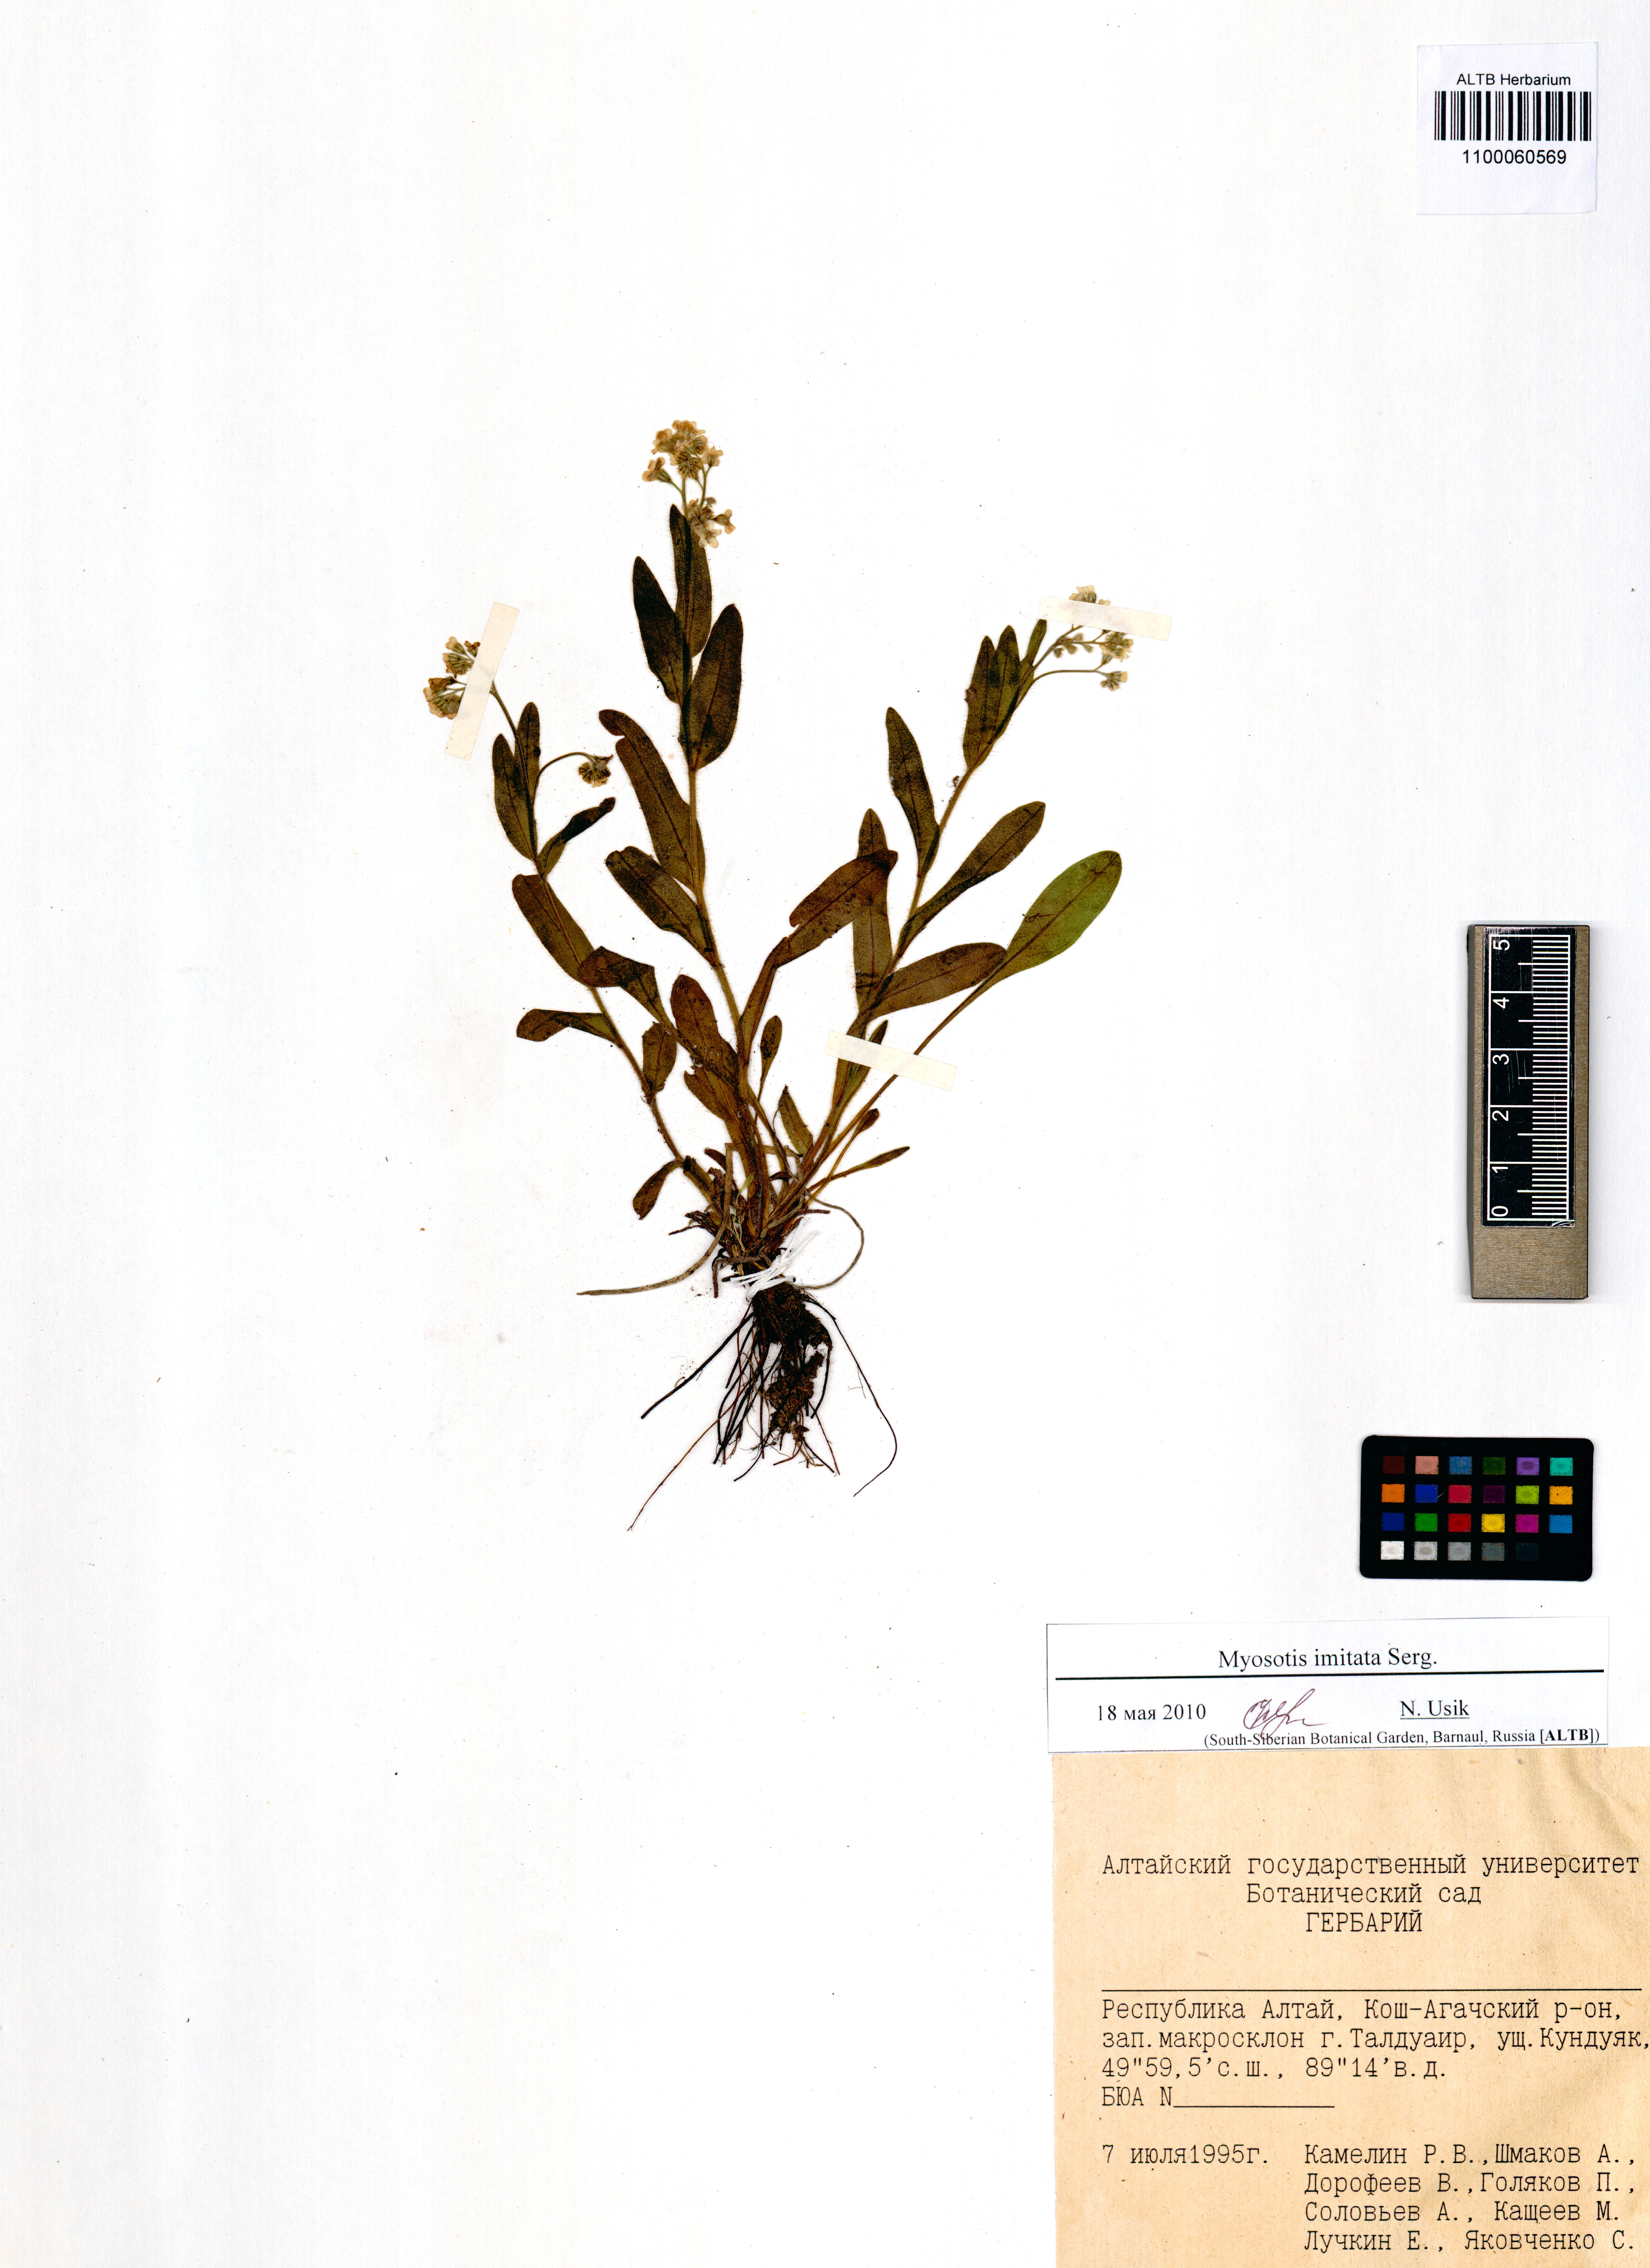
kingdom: Plantae
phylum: Tracheophyta
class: Magnoliopsida
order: Boraginales
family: Boraginaceae
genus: Myosotis
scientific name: Myosotis imitata
